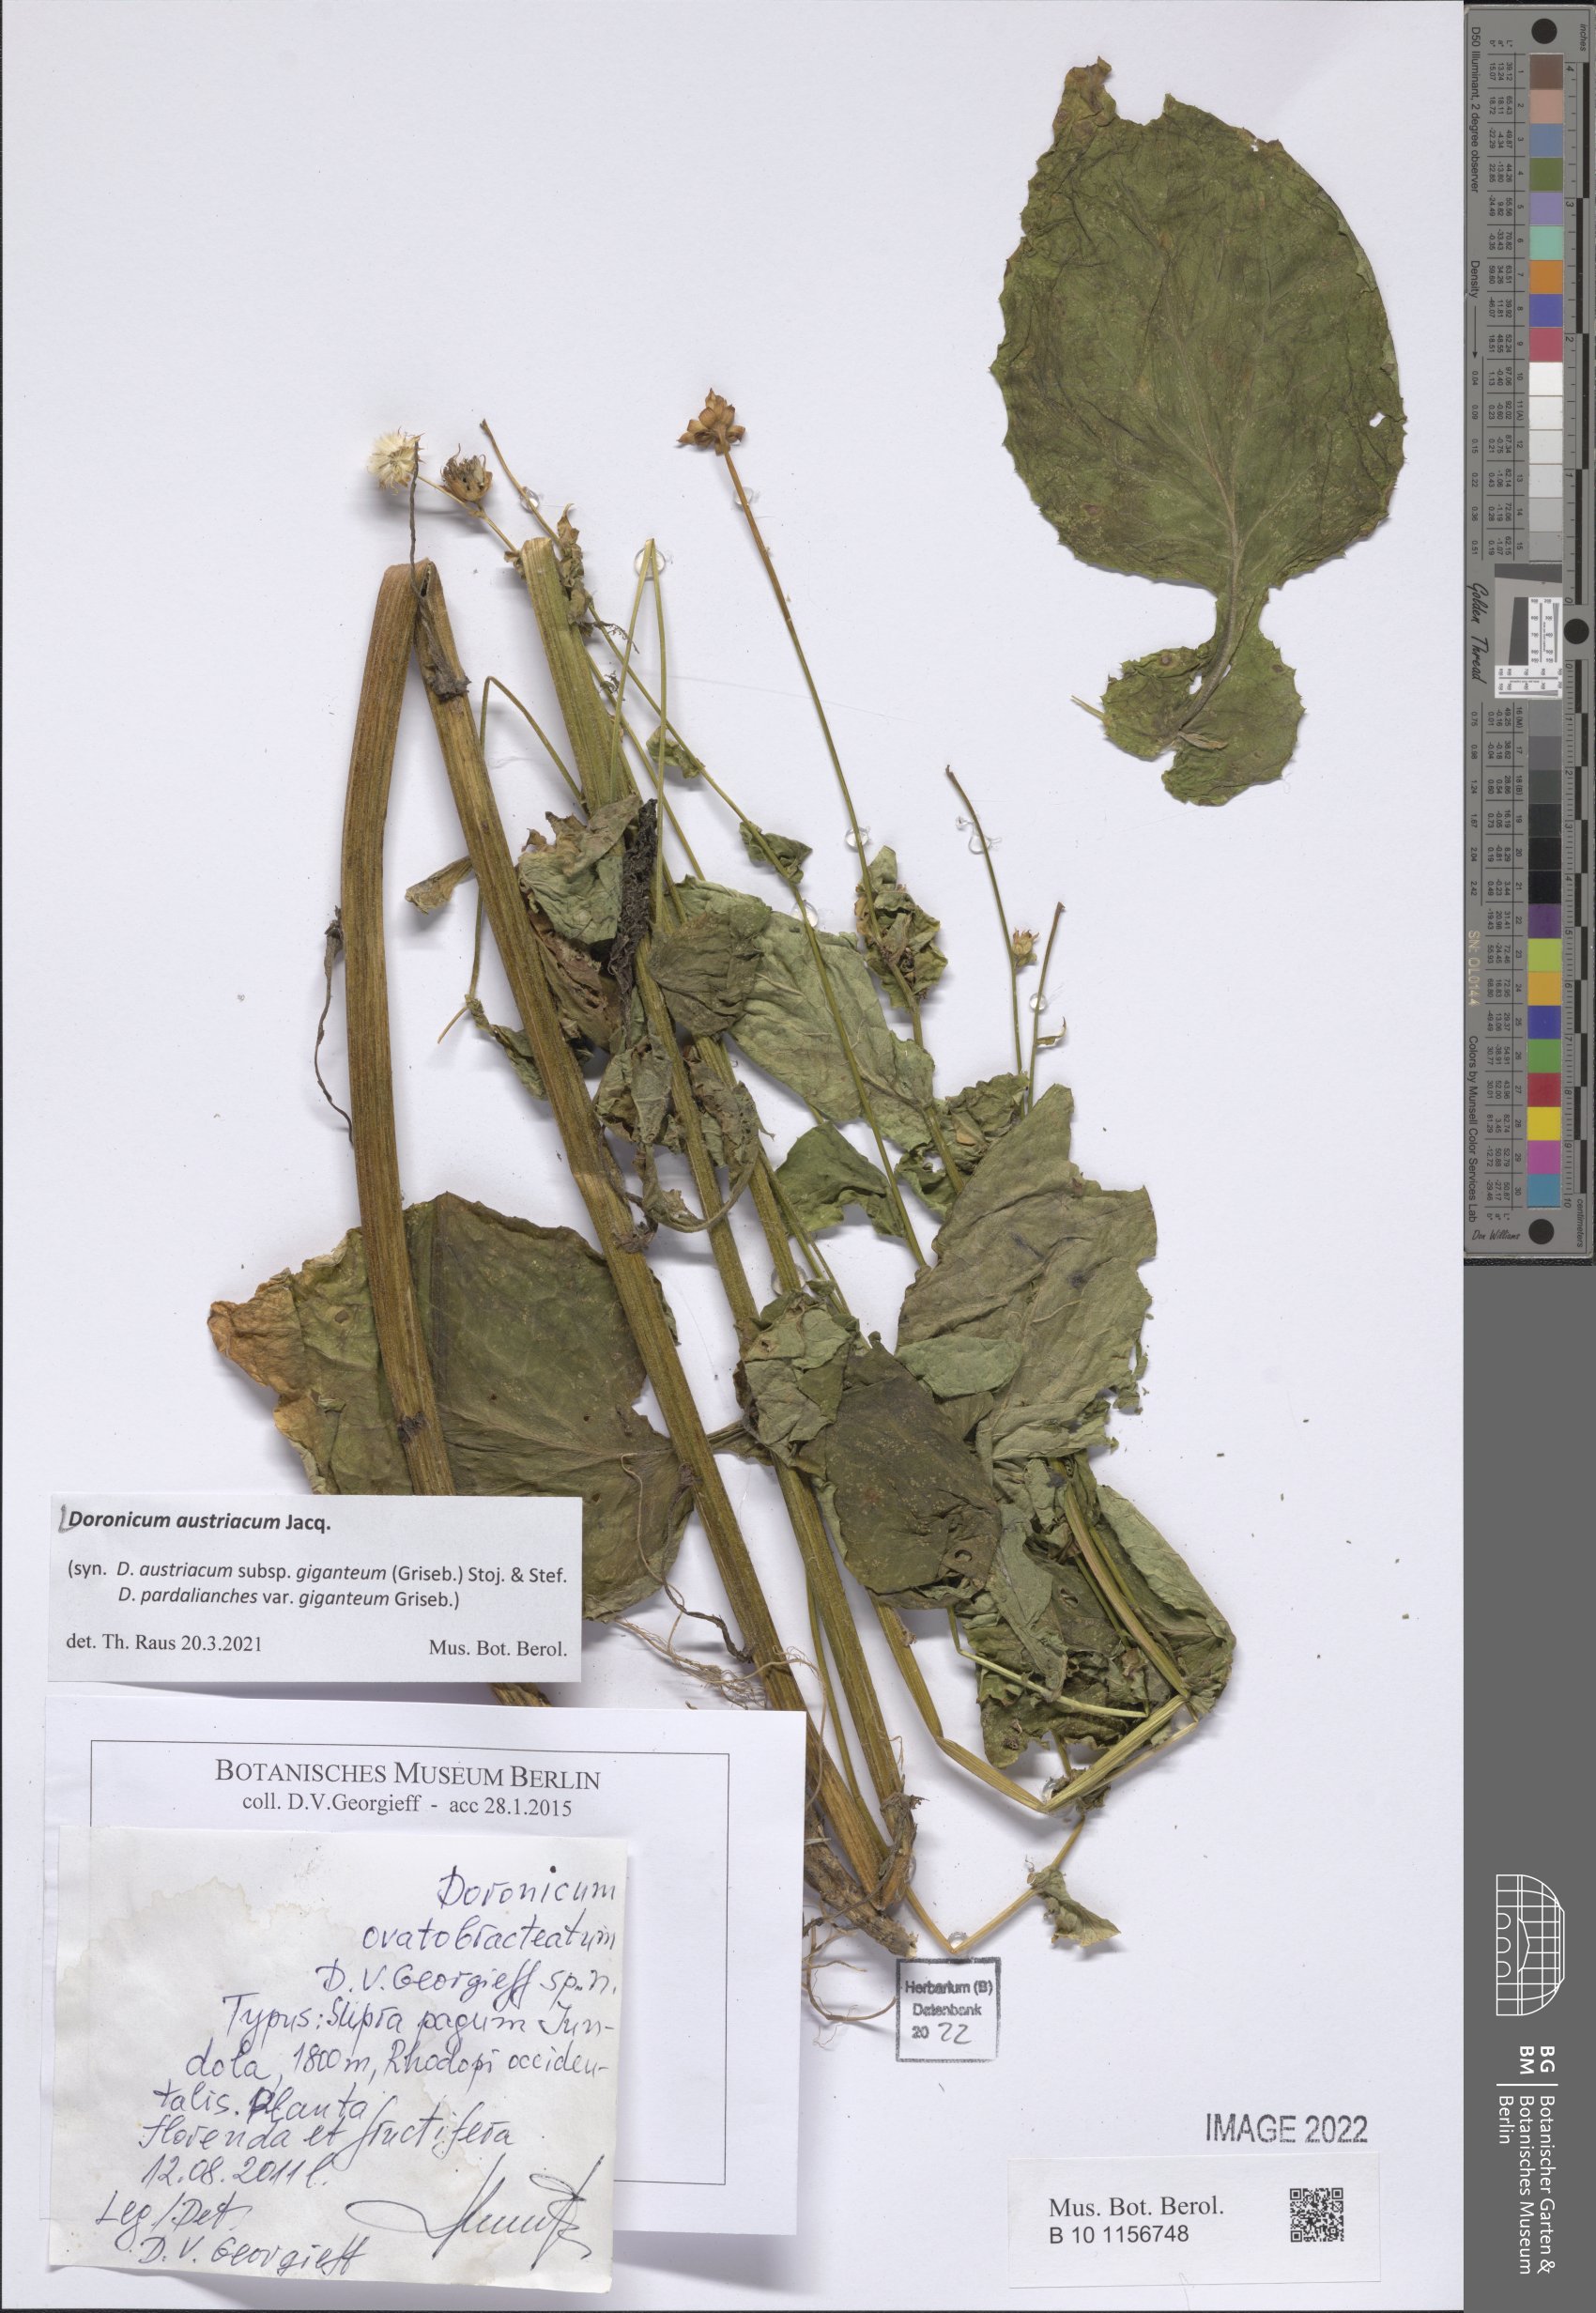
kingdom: Plantae
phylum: Tracheophyta
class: Magnoliopsida
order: Asterales
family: Asteraceae
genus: Doronicum
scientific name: Doronicum austriacum
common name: Austrian leopard's-bane
